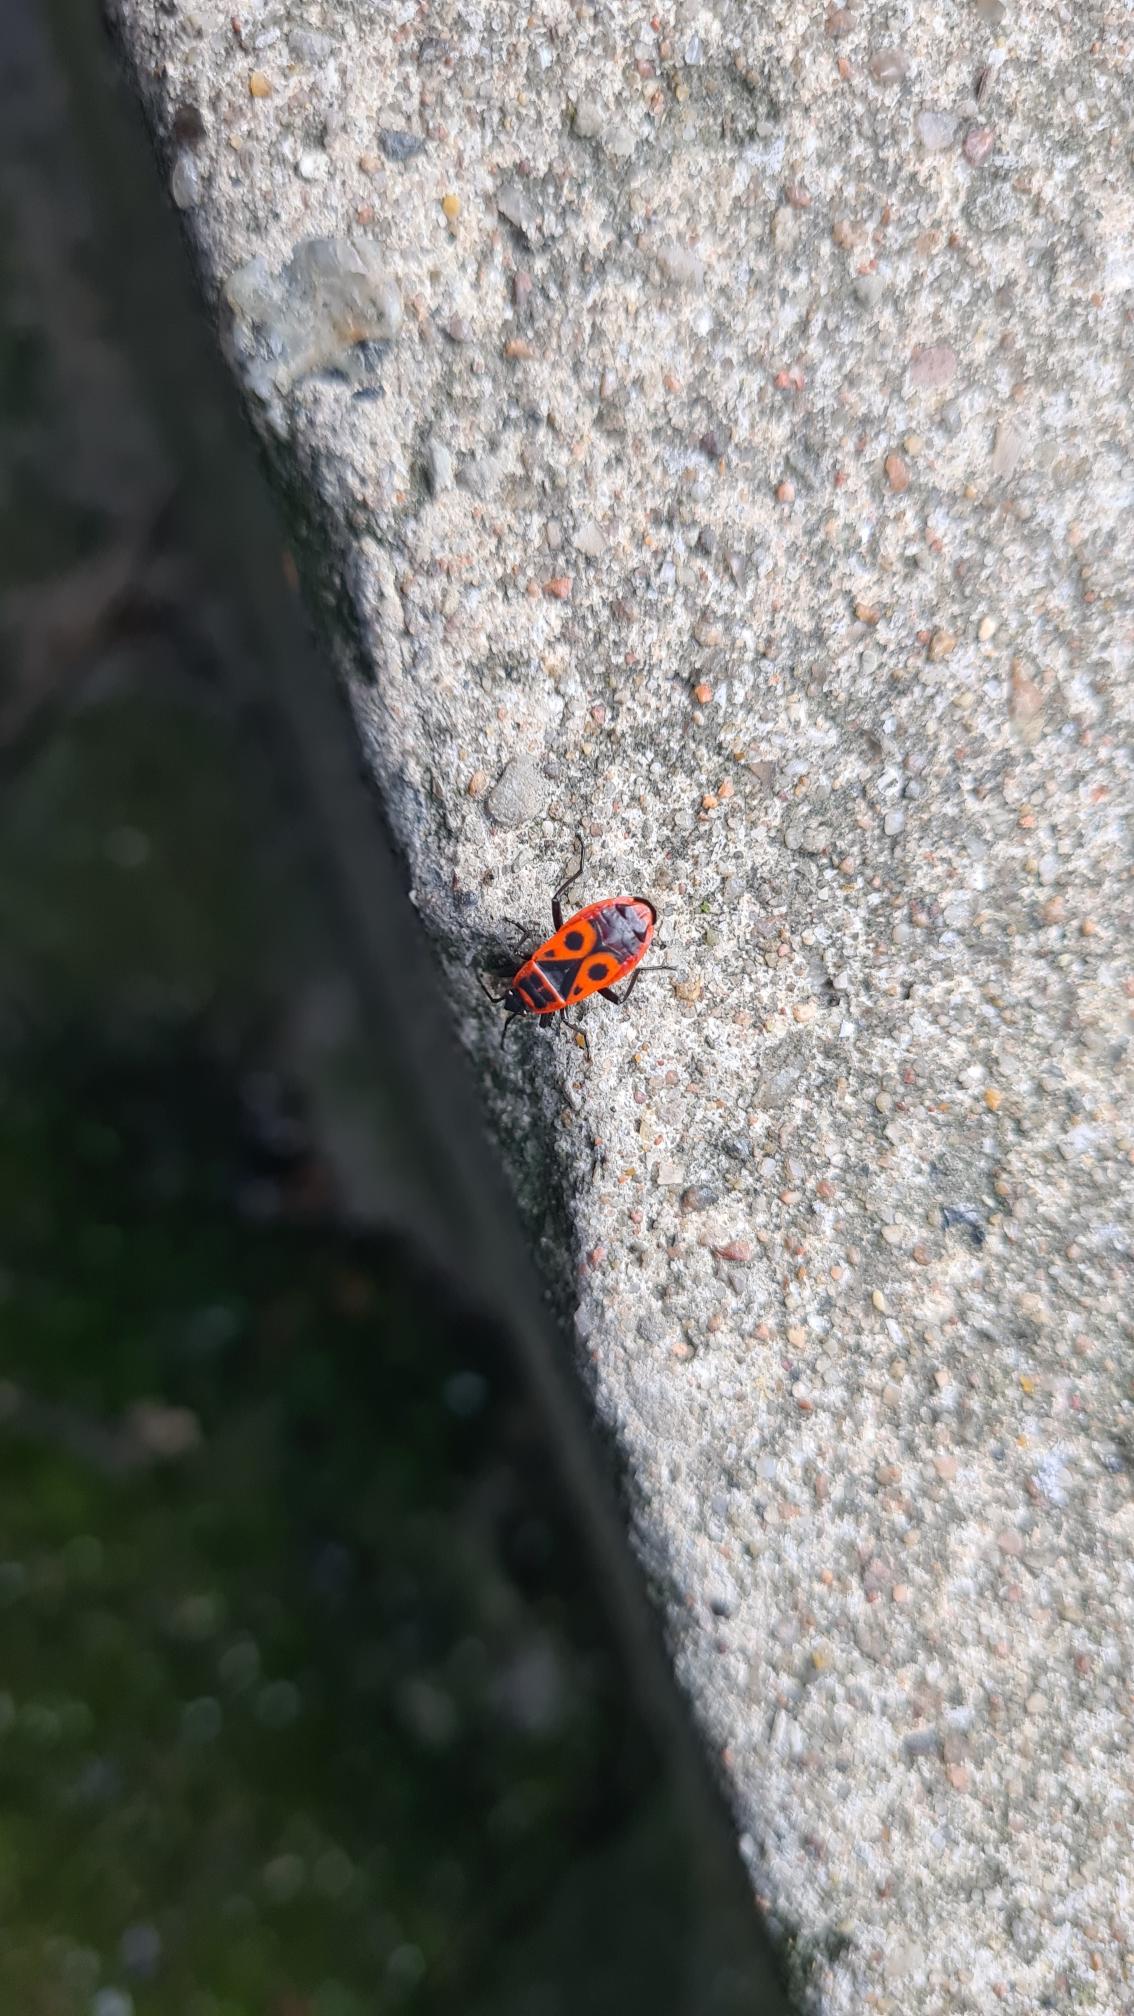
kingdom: Animalia
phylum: Arthropoda
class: Insecta
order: Hemiptera
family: Pyrrhocoridae
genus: Pyrrhocoris
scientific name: Pyrrhocoris apterus
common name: Ildtæge
